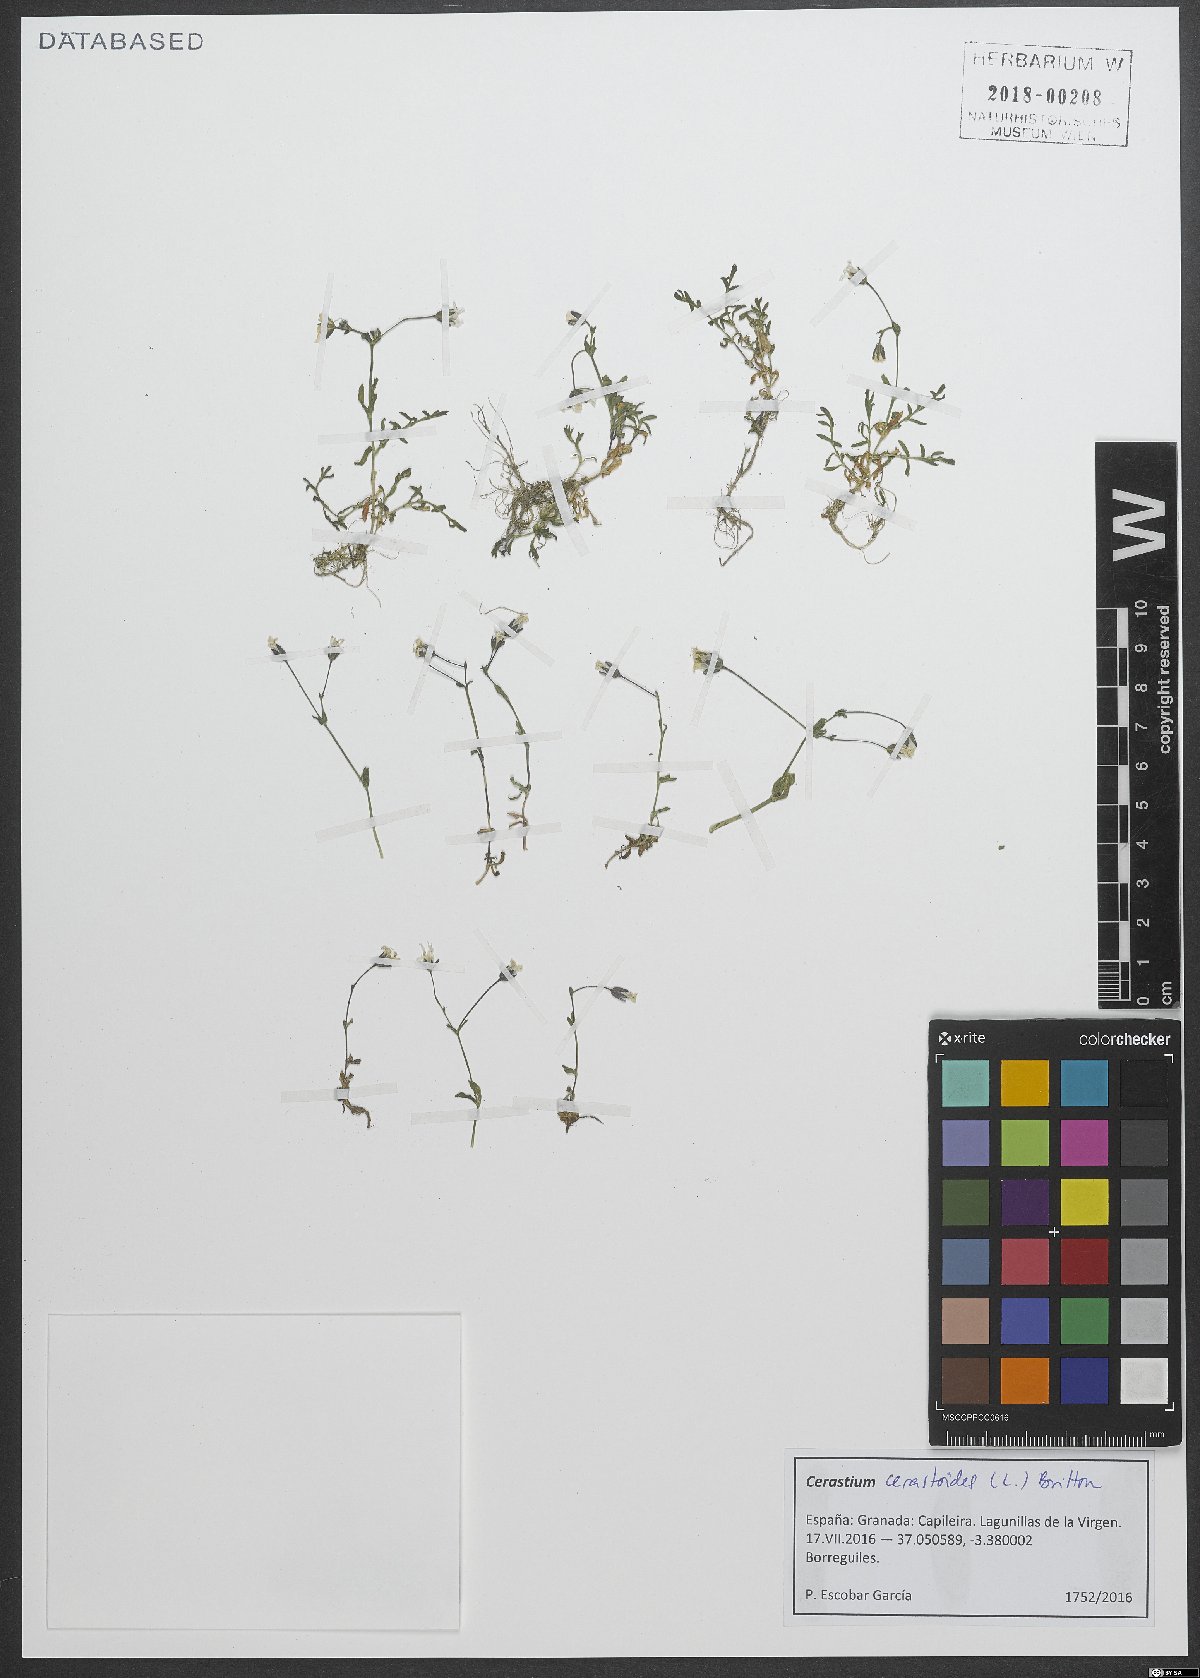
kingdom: Plantae
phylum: Tracheophyta
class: Magnoliopsida
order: Caryophyllales
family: Caryophyllaceae
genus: Dichodon
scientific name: Dichodon cerastoides
